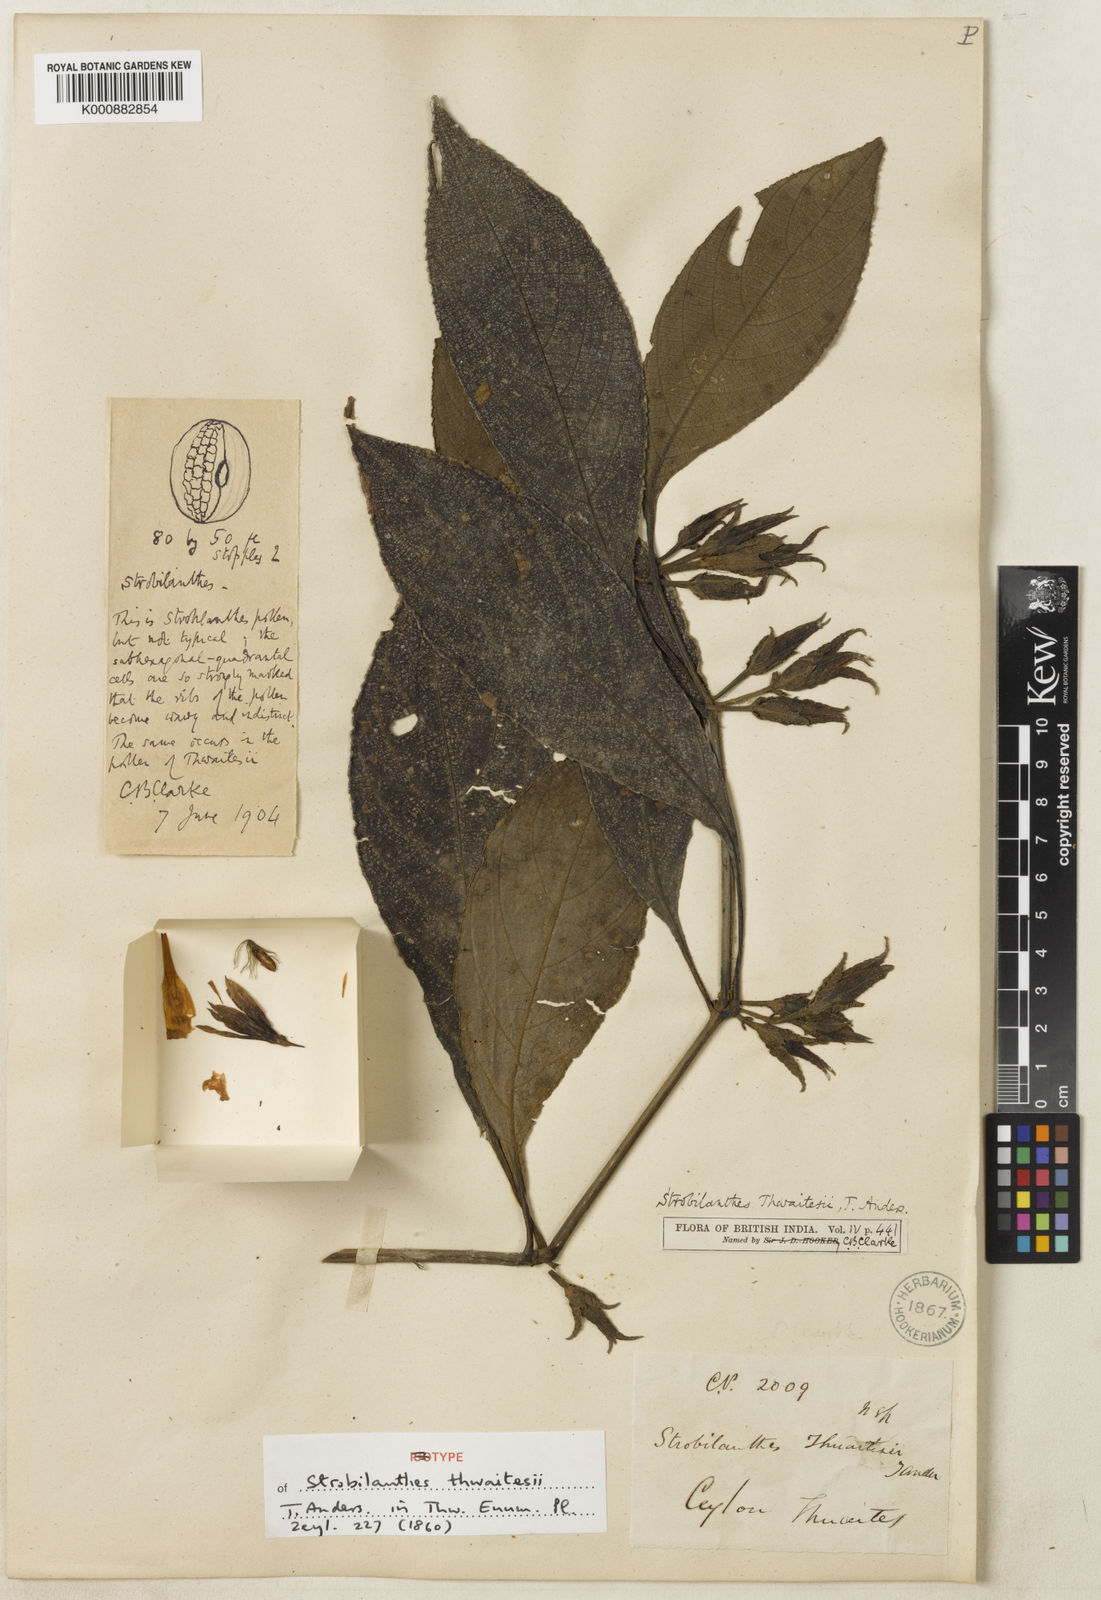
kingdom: Plantae
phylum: Tracheophyta
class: Magnoliopsida
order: Lamiales
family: Acanthaceae
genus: Strobilanthes
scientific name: Strobilanthes thwaitesii
